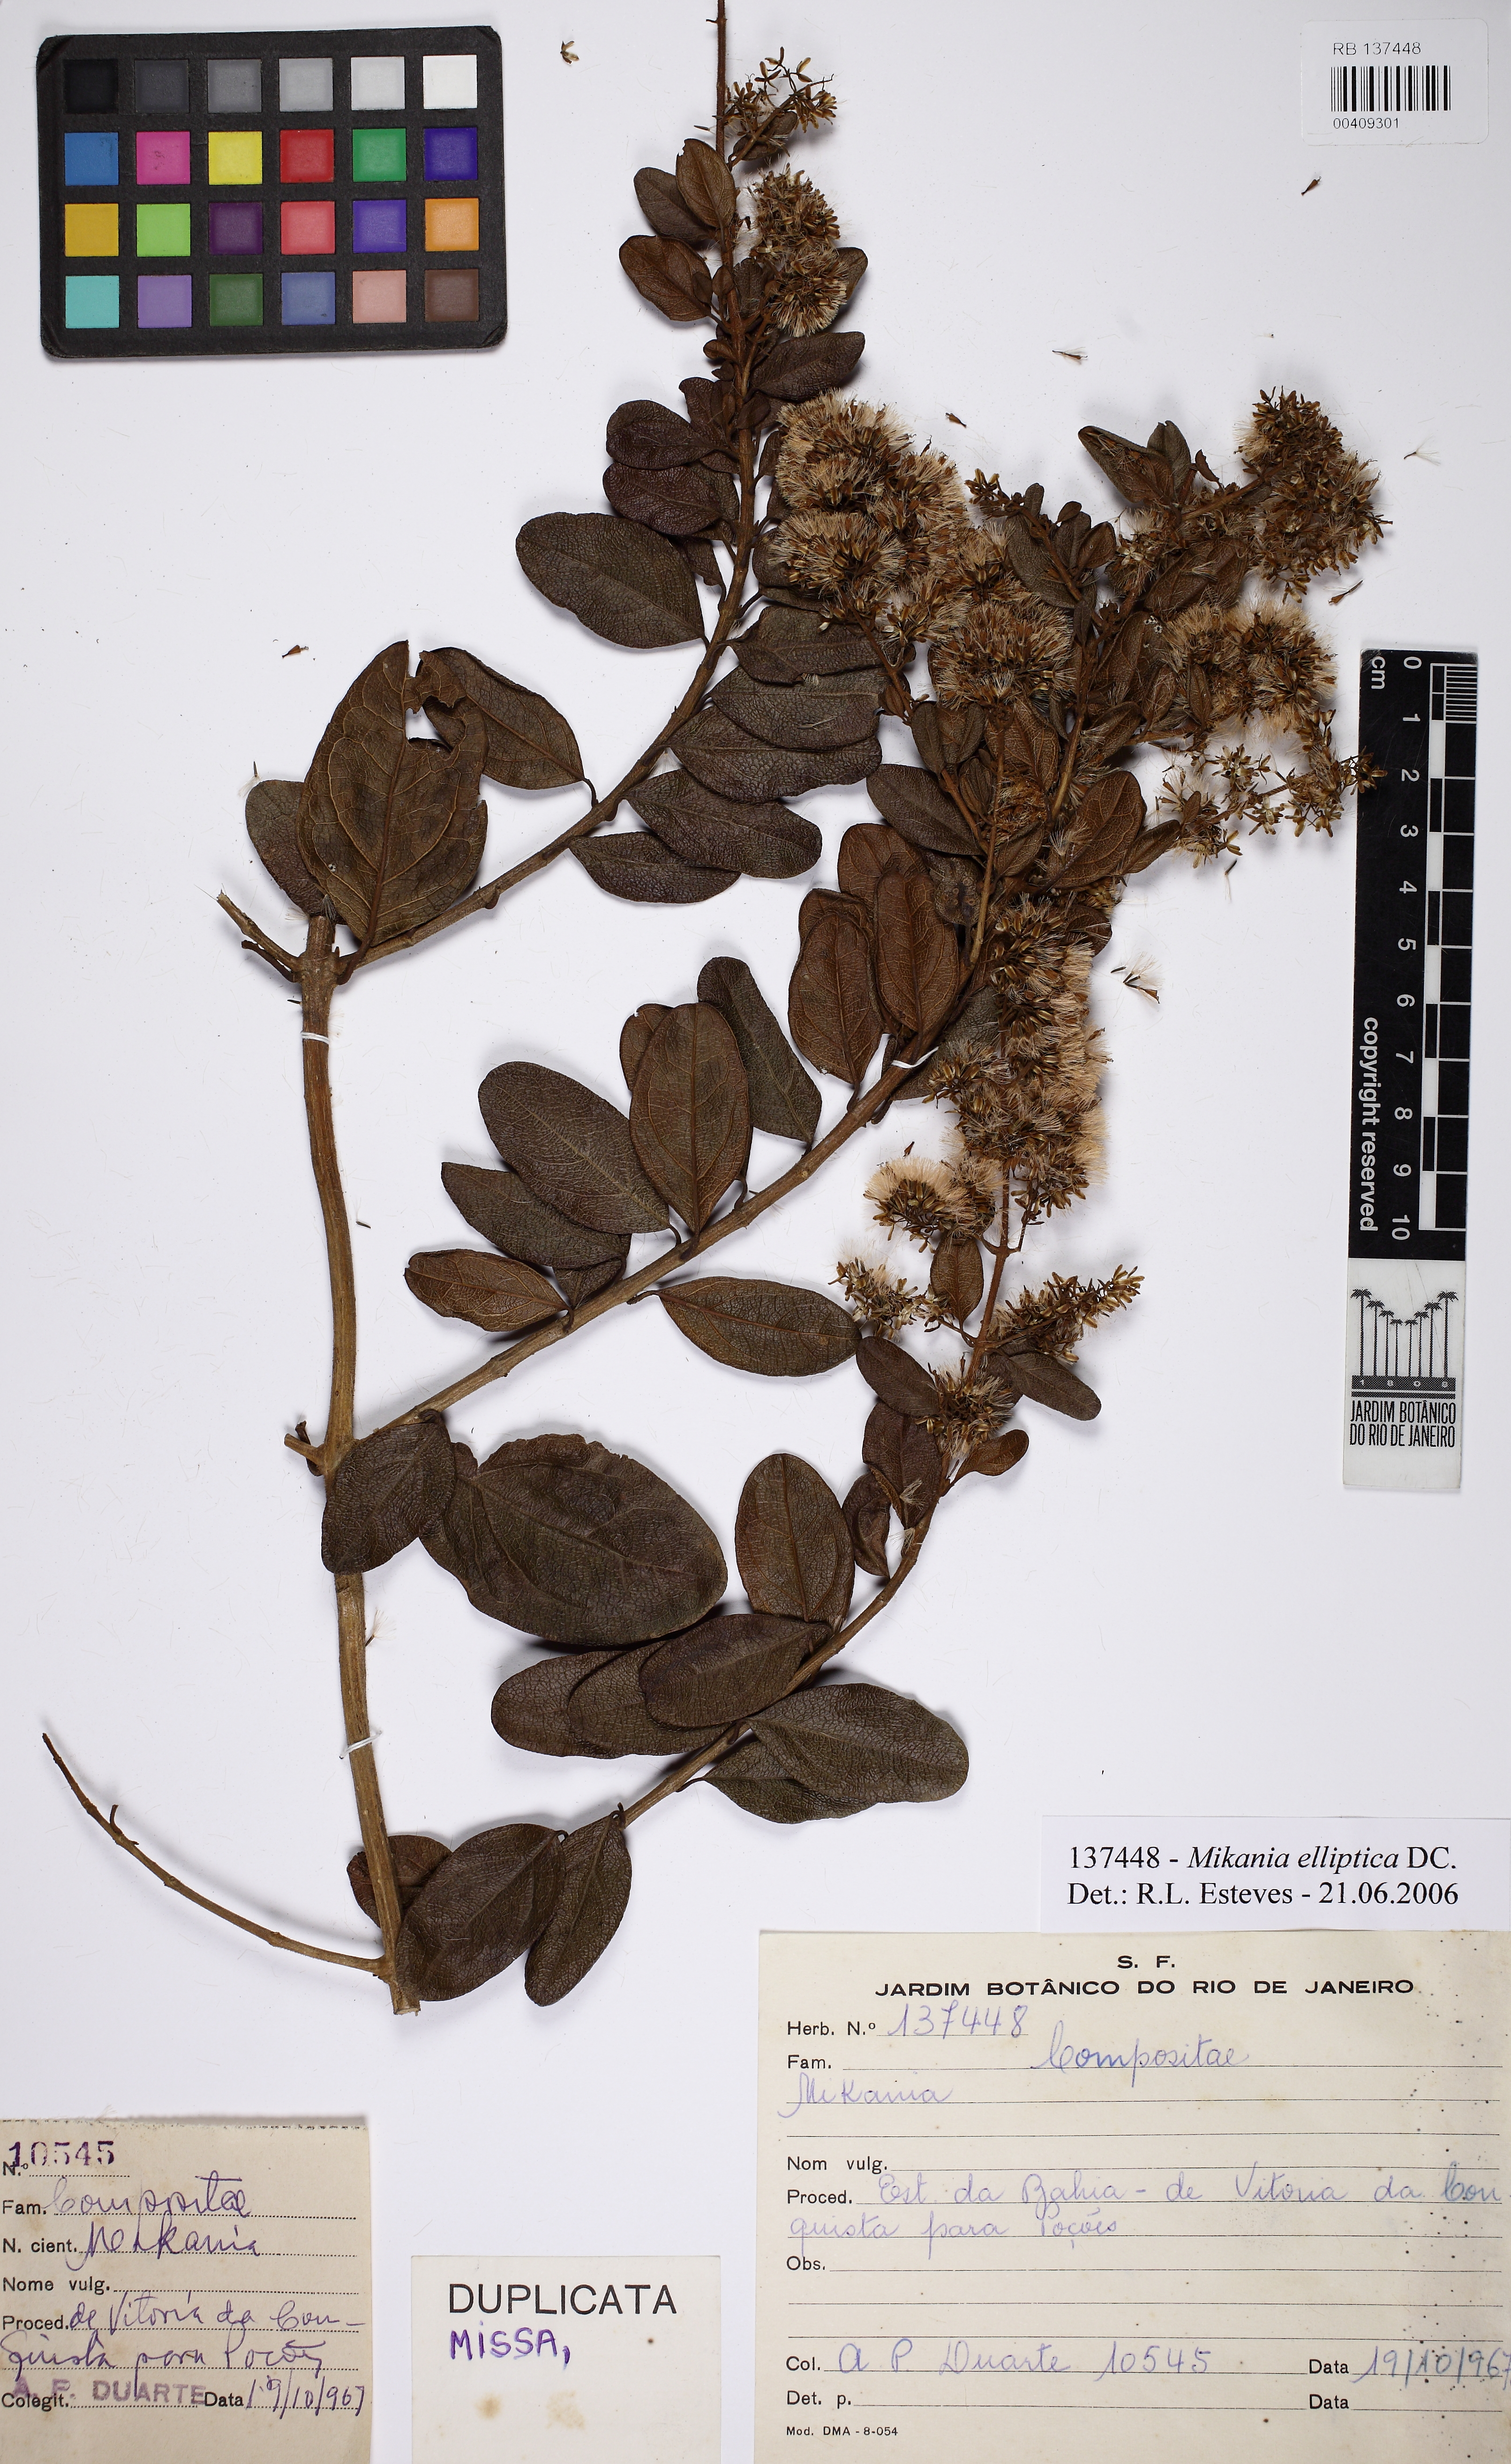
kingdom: Plantae
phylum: Tracheophyta
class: Magnoliopsida
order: Asterales
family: Asteraceae
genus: Mikania
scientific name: Mikania
